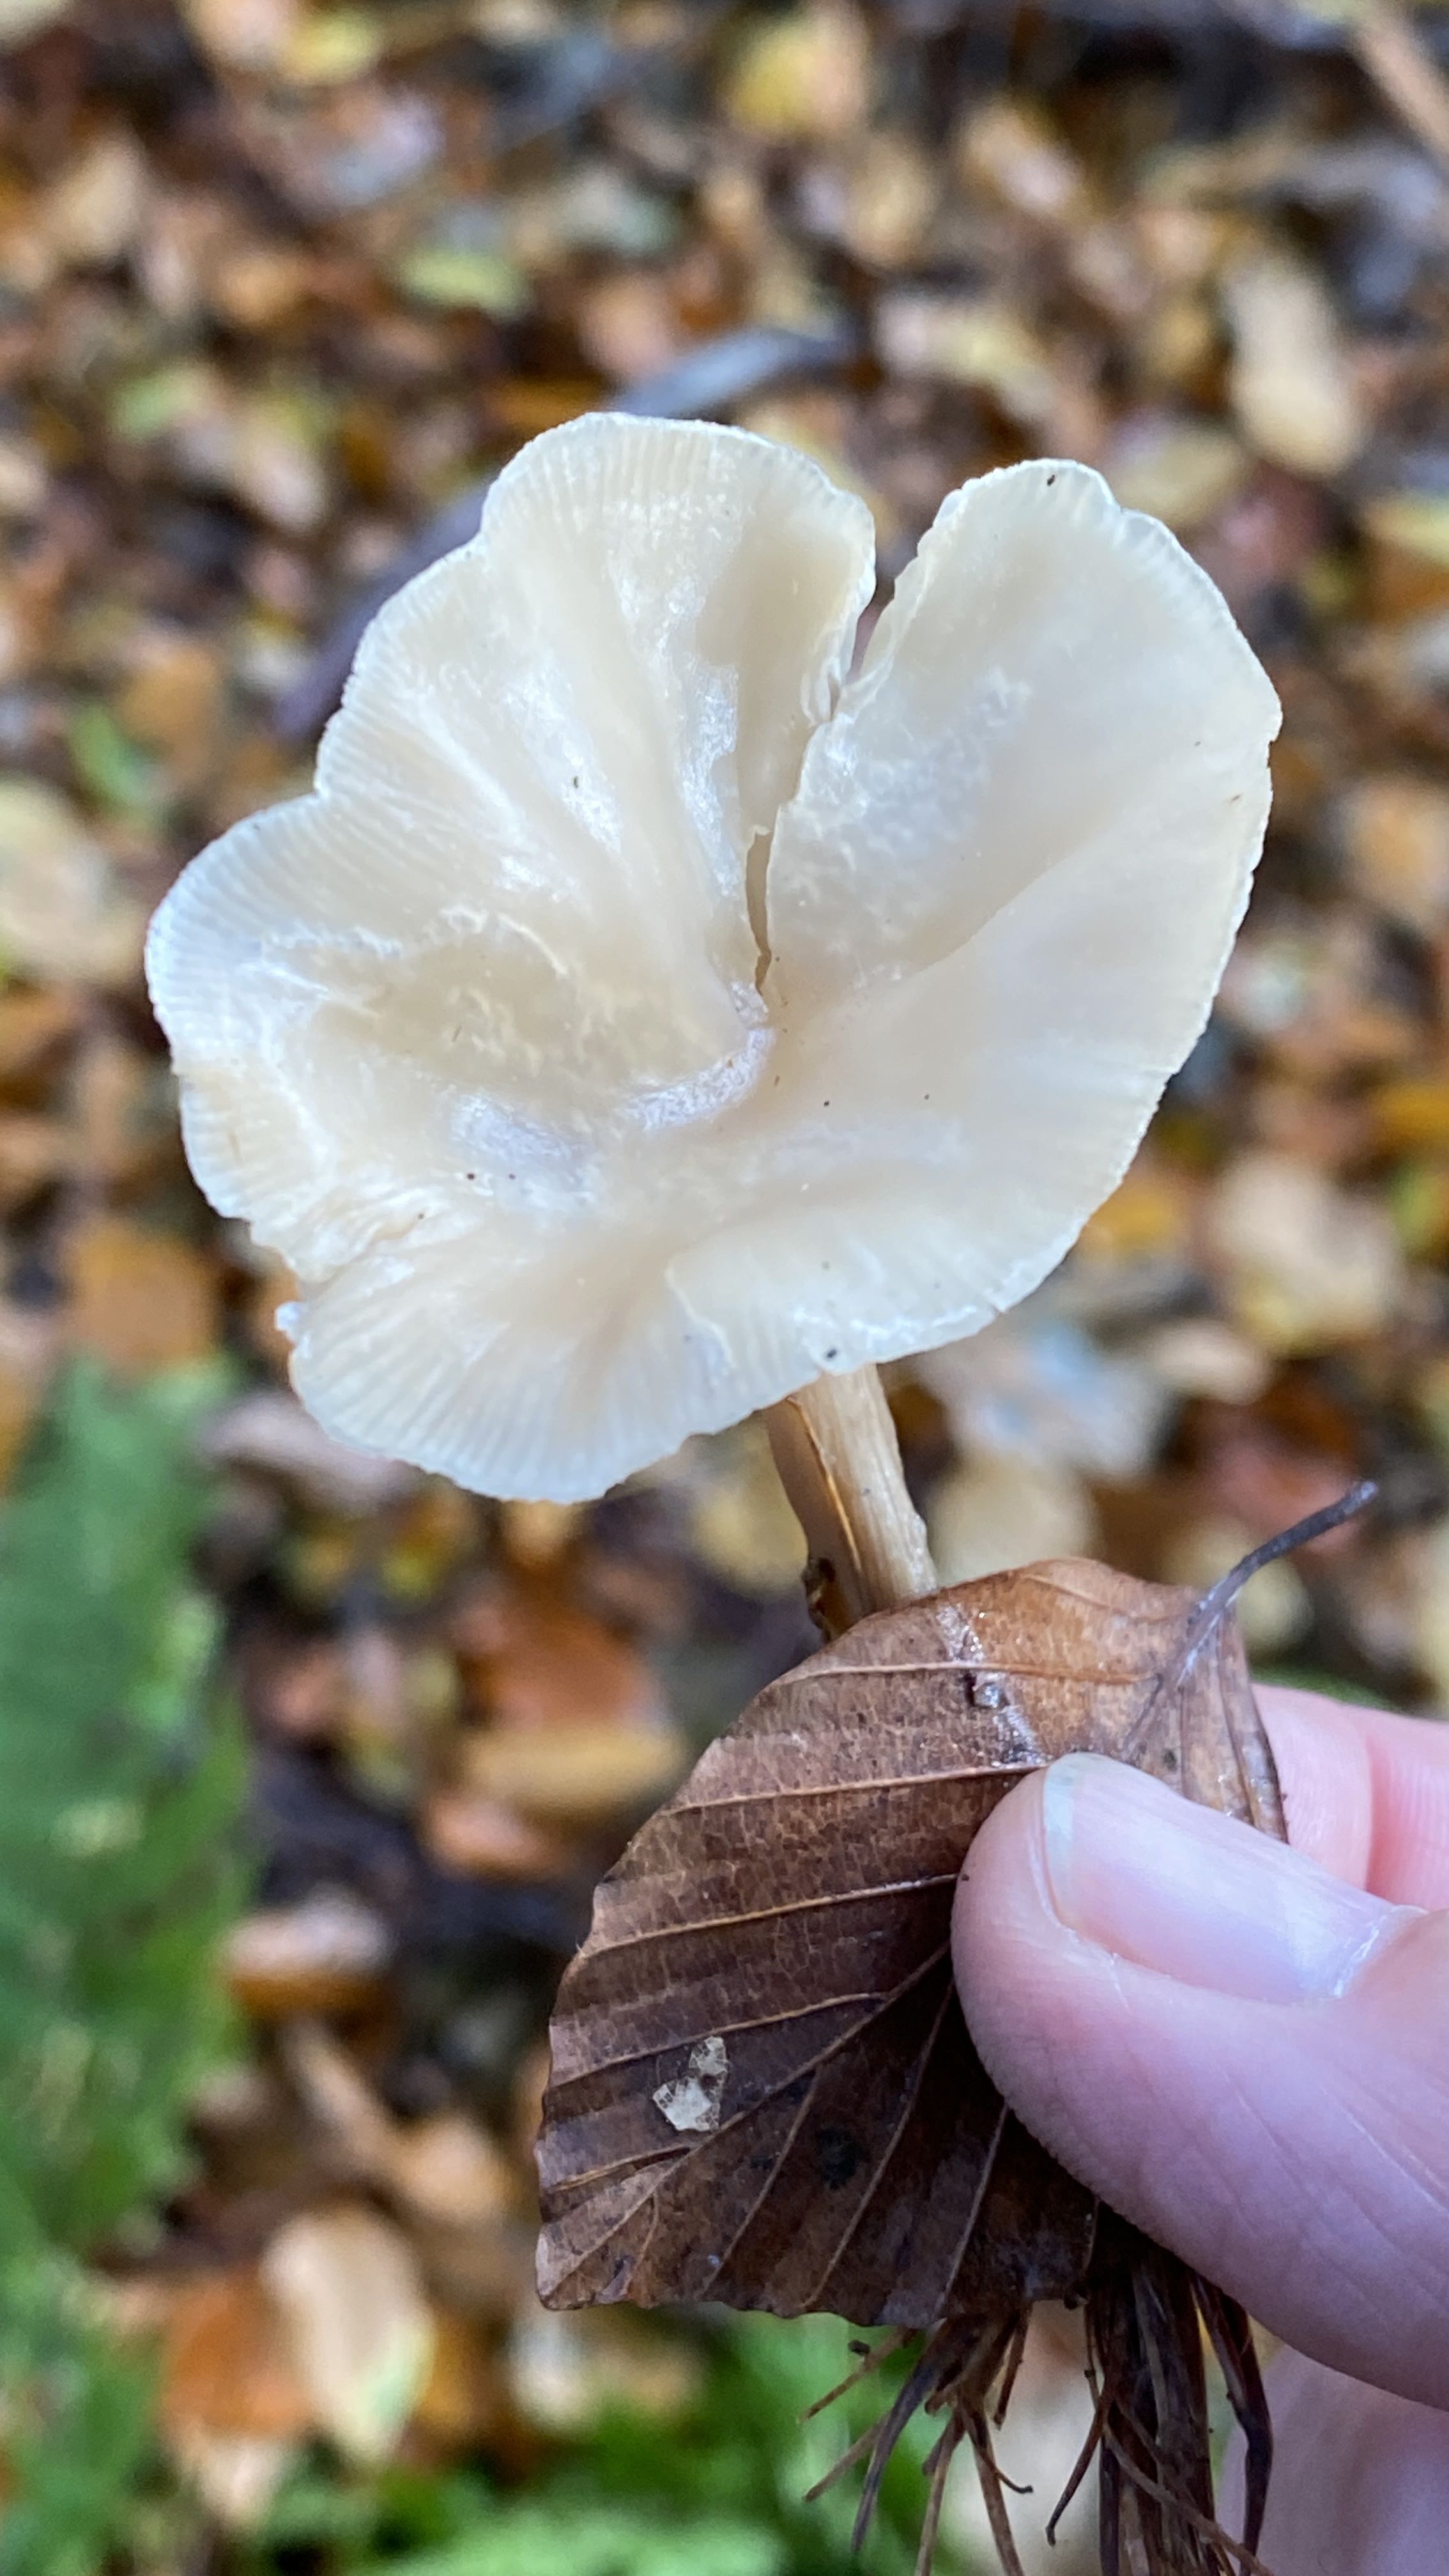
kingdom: Fungi
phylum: Basidiomycota
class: Agaricomycetes
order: Agaricales
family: Tricholomataceae
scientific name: Tricholomataceae
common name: ridderhatfamilien
